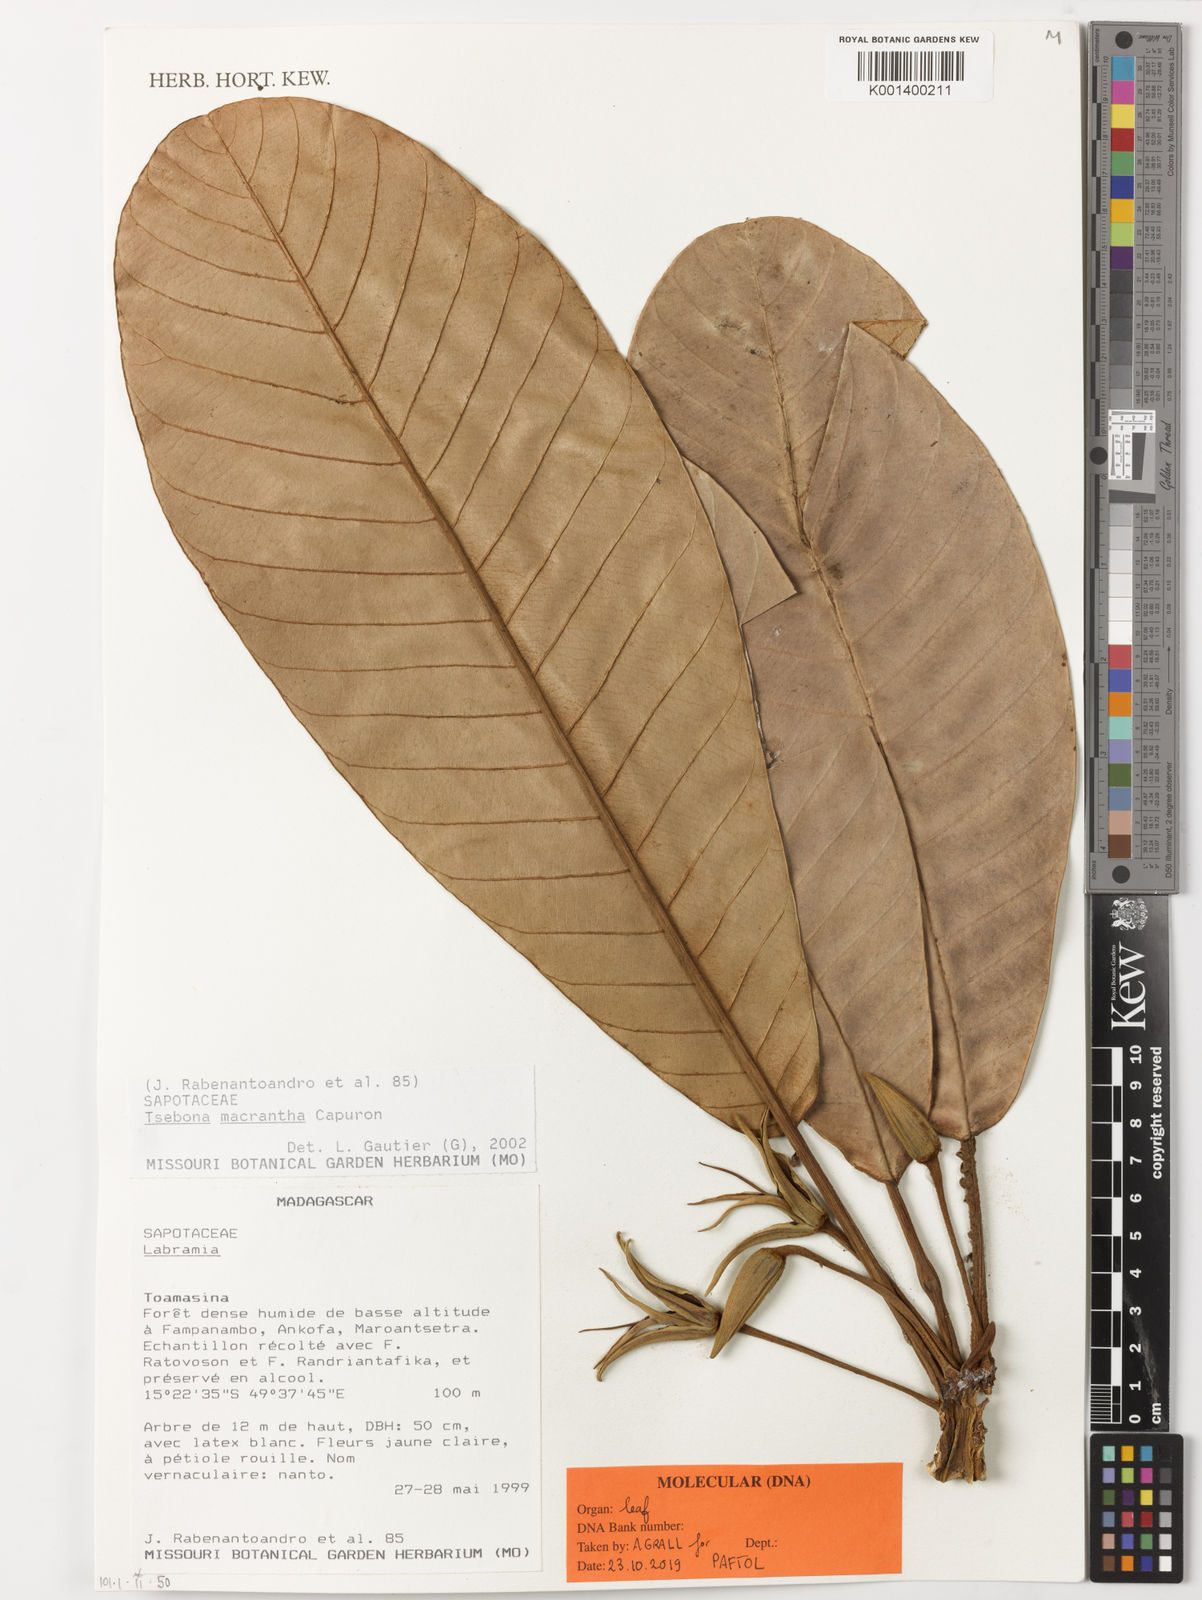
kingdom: Plantae
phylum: Tracheophyta
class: Magnoliopsida
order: Ericales
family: Sapotaceae
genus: Tsebona
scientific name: Tsebona macrantha
